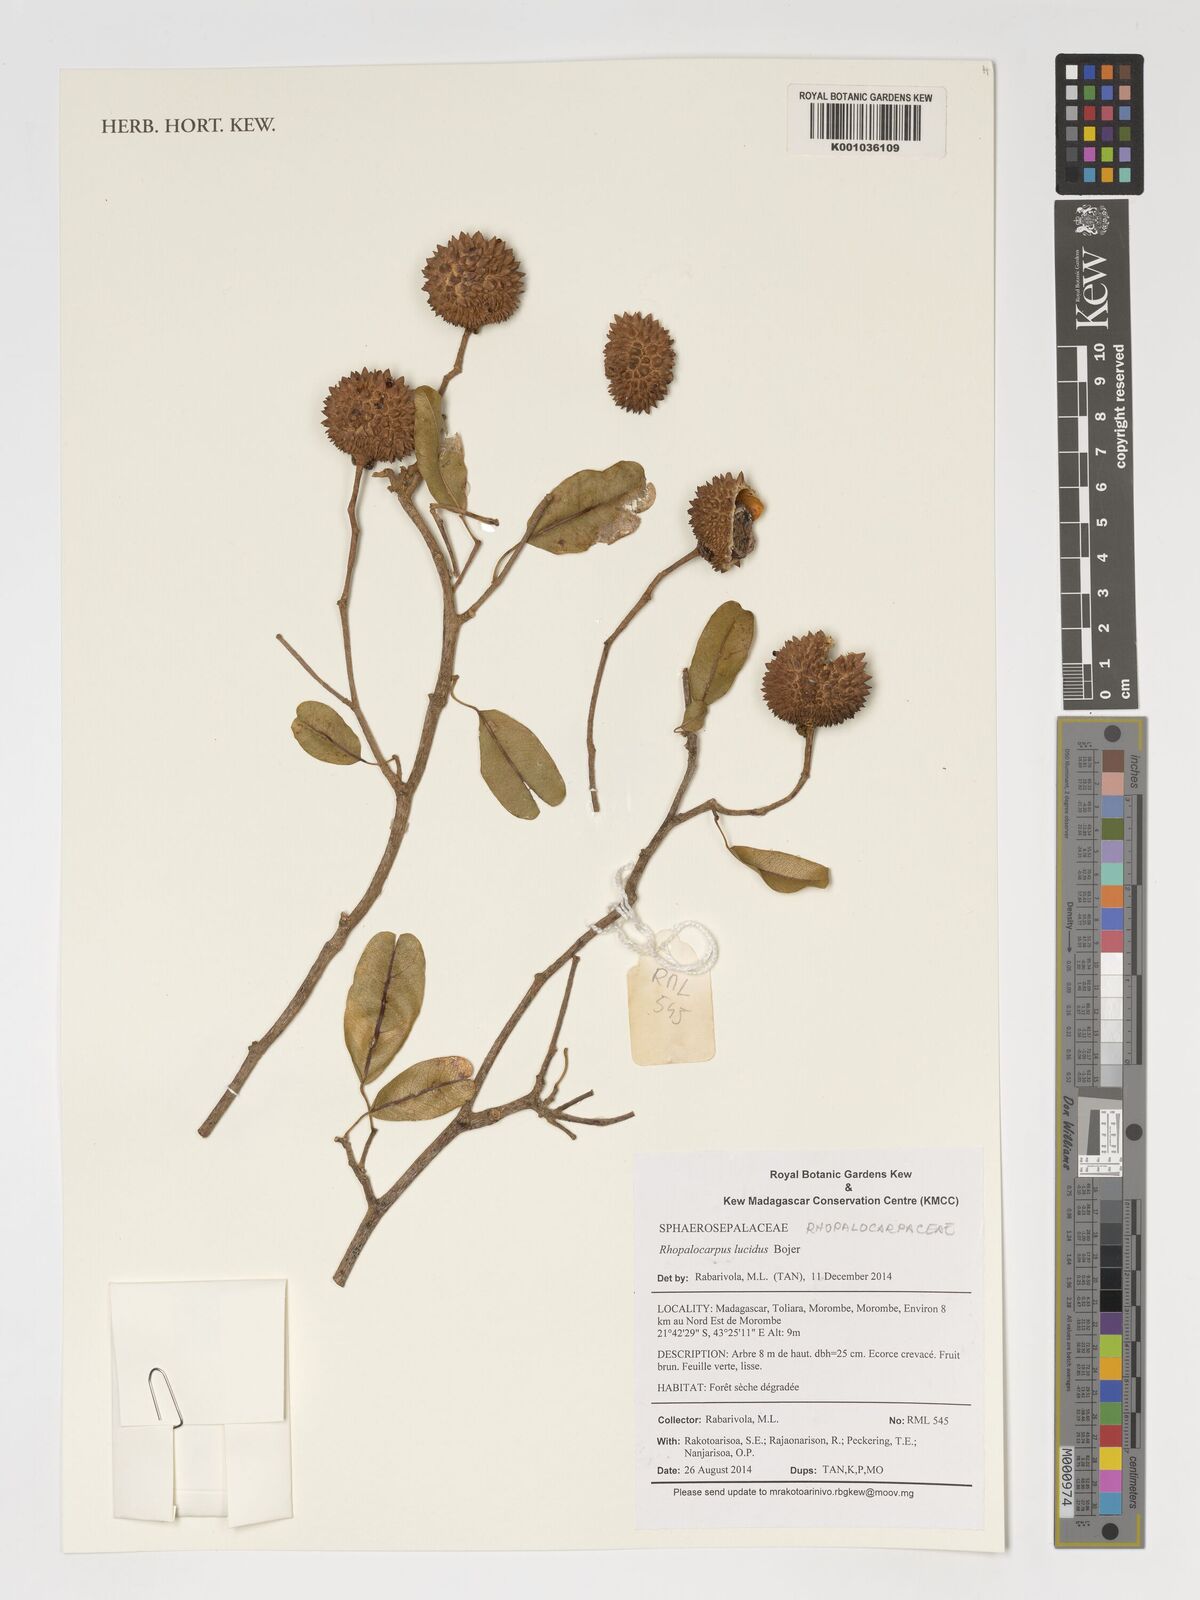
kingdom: Plantae
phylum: Tracheophyta
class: Magnoliopsida
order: Malvales
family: Sphaerosepalaceae
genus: Rhopalocarpus
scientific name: Rhopalocarpus lucidus
